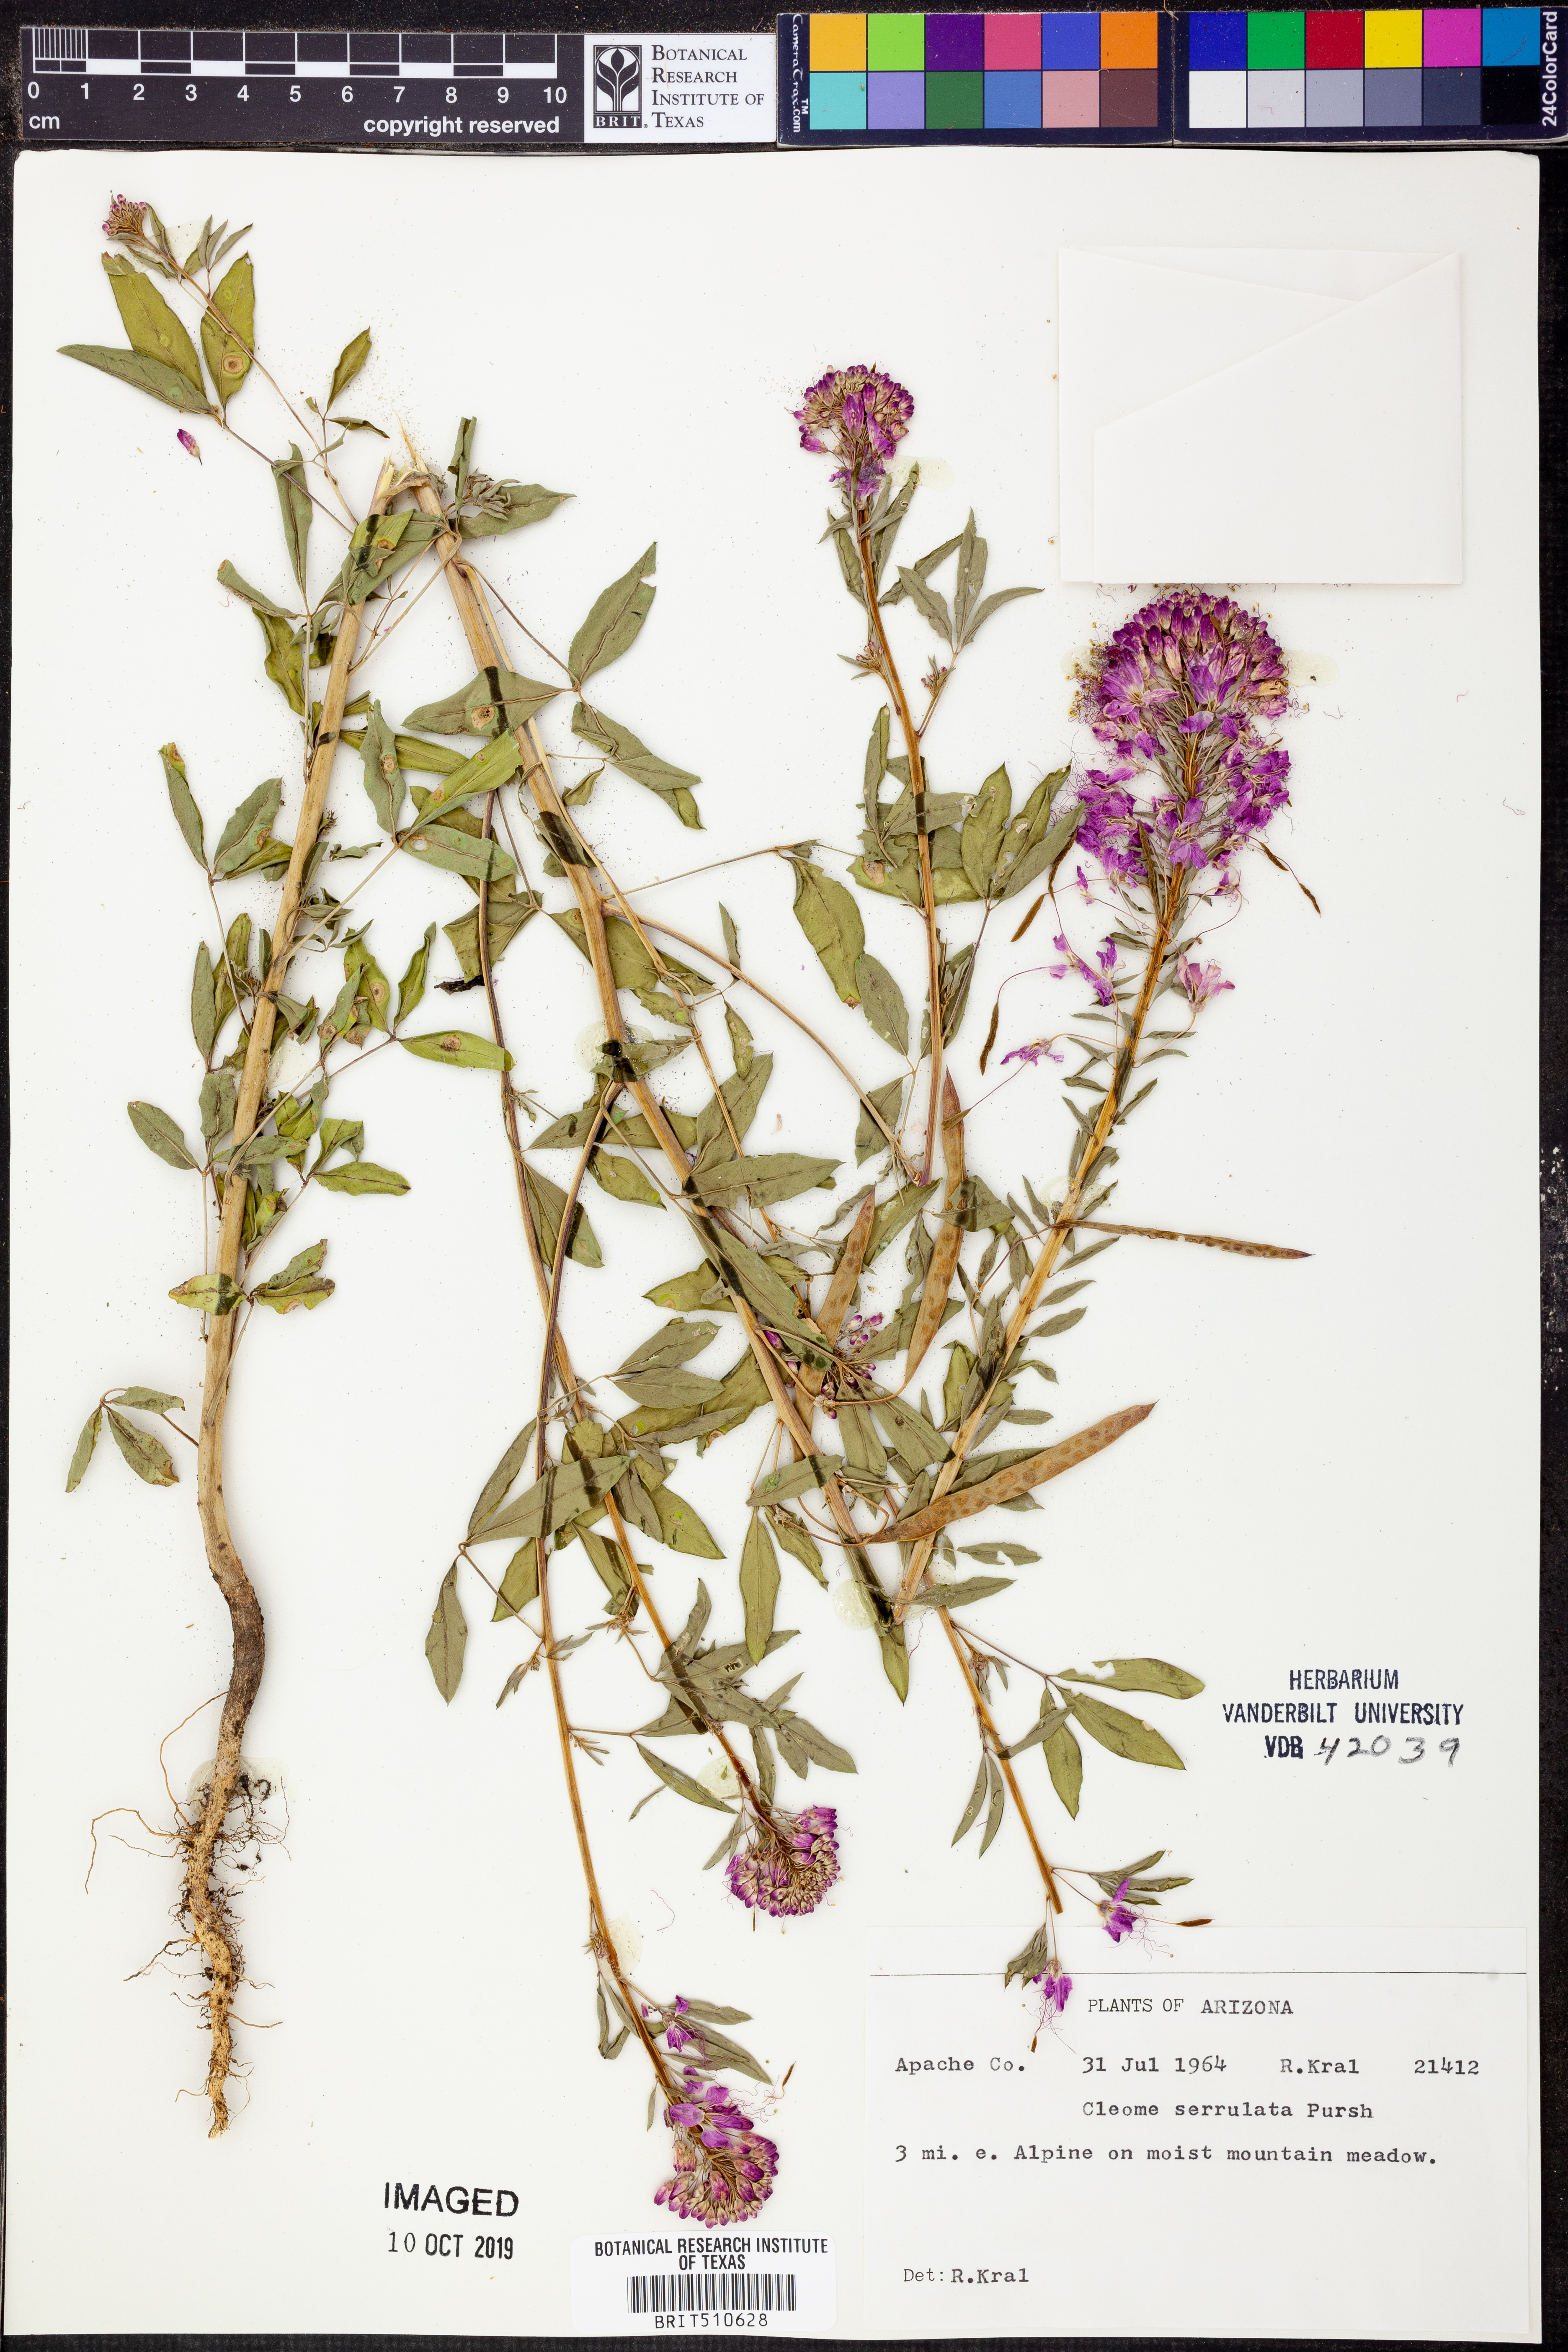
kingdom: Plantae
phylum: Tracheophyta
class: Magnoliopsida
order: Brassicales
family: Cleomaceae
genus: Cleomella
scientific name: Cleomella serrulata
